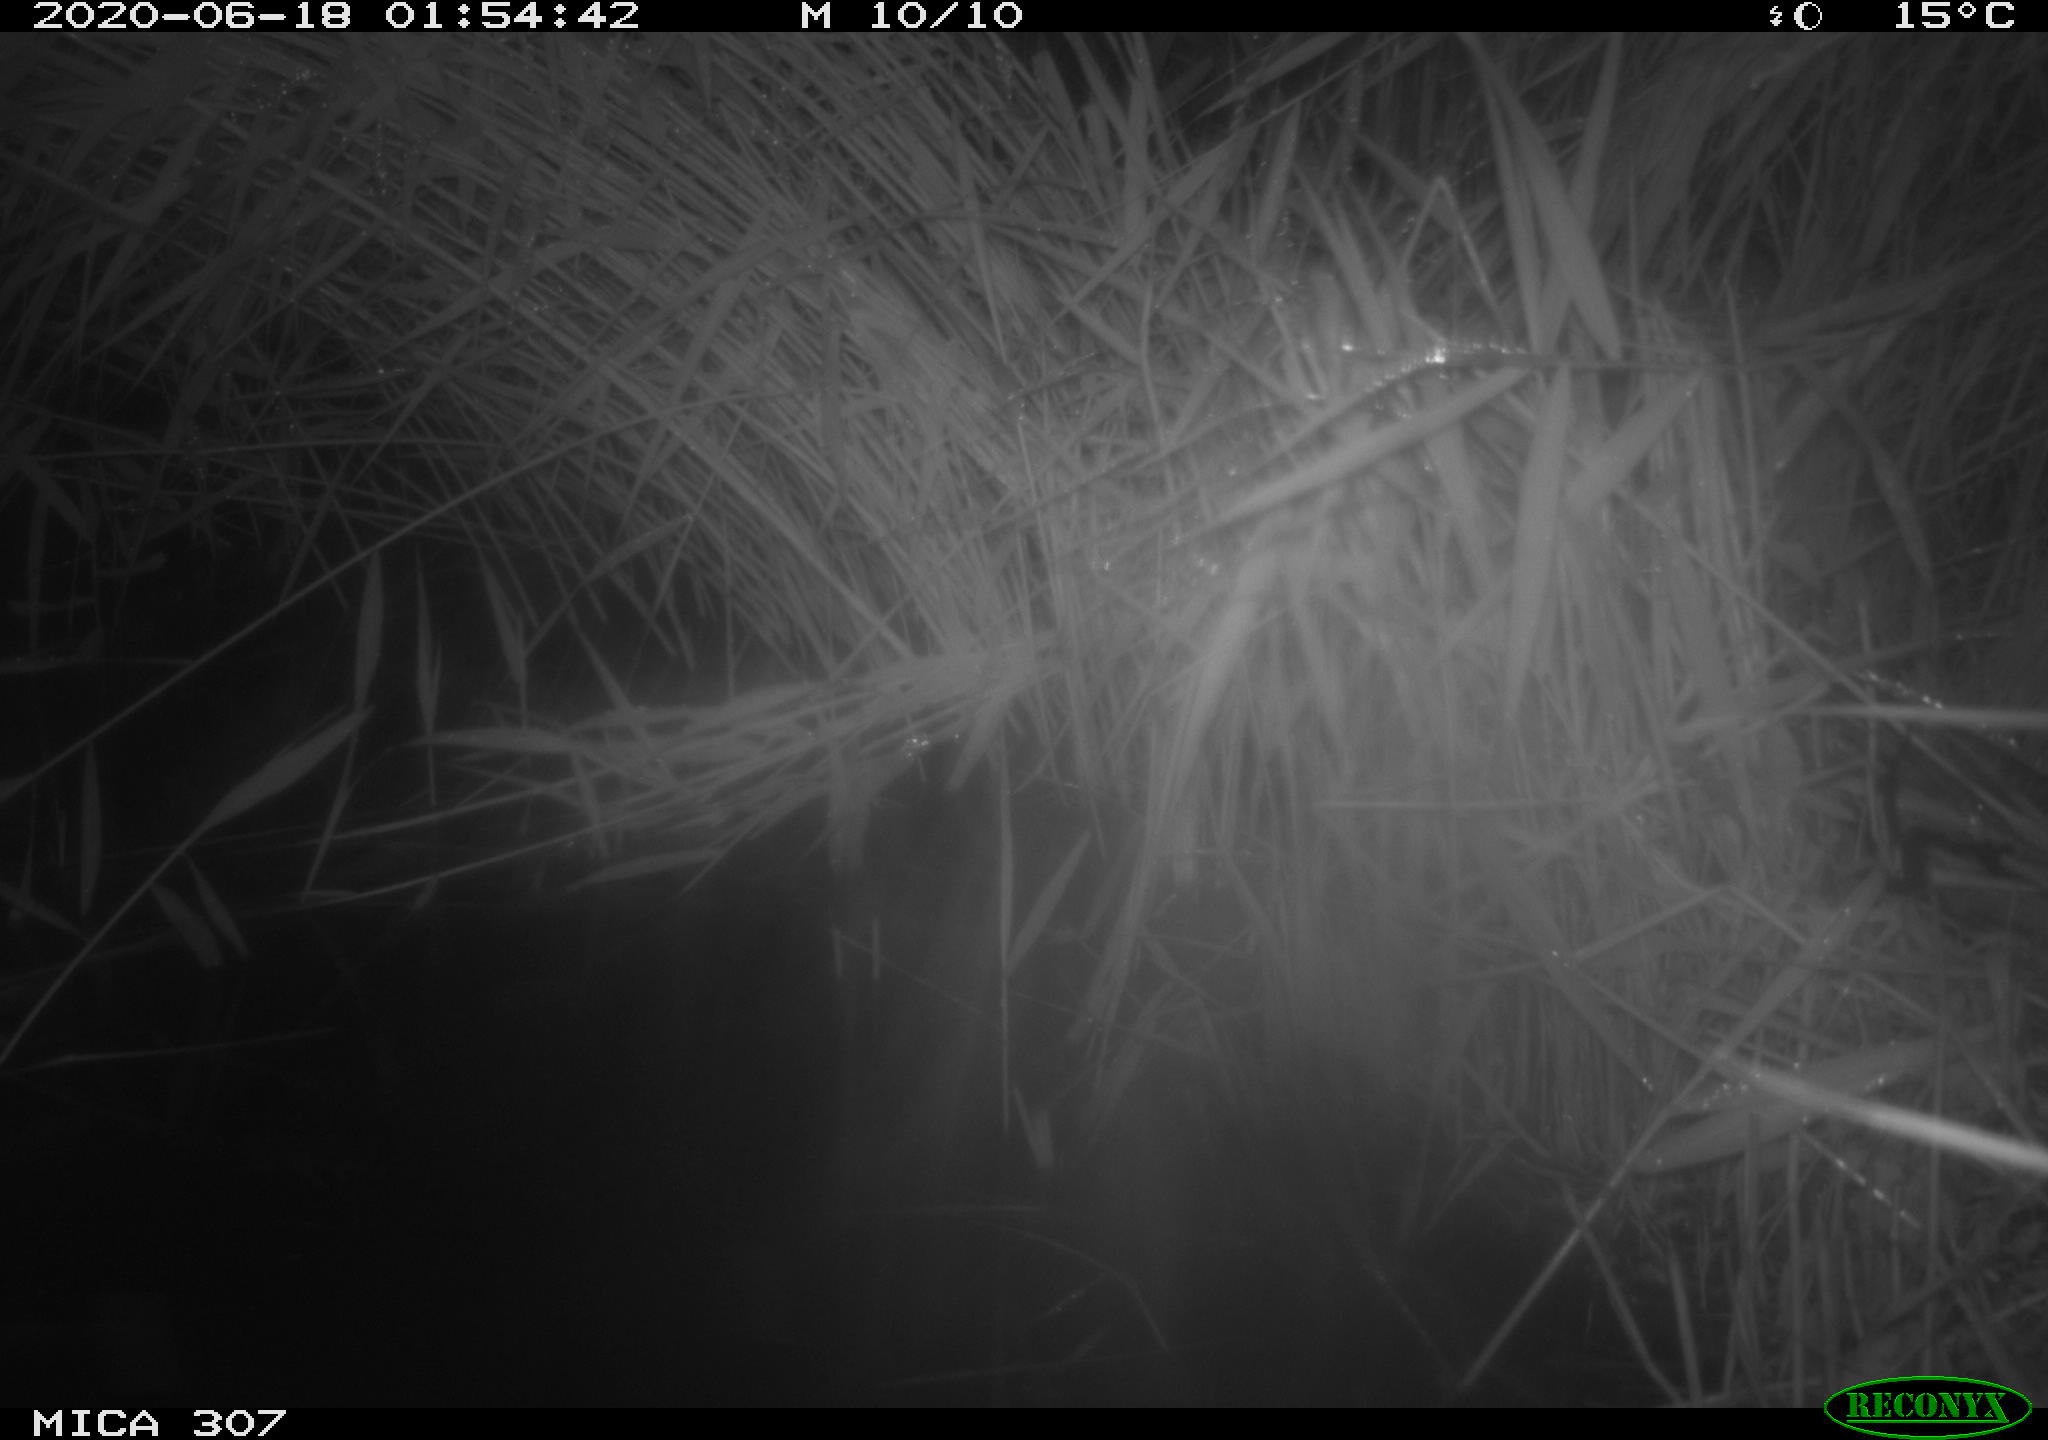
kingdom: Animalia
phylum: Chordata
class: Mammalia
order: Rodentia
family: Muridae
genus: Rattus
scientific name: Rattus norvegicus
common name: Brown rat
